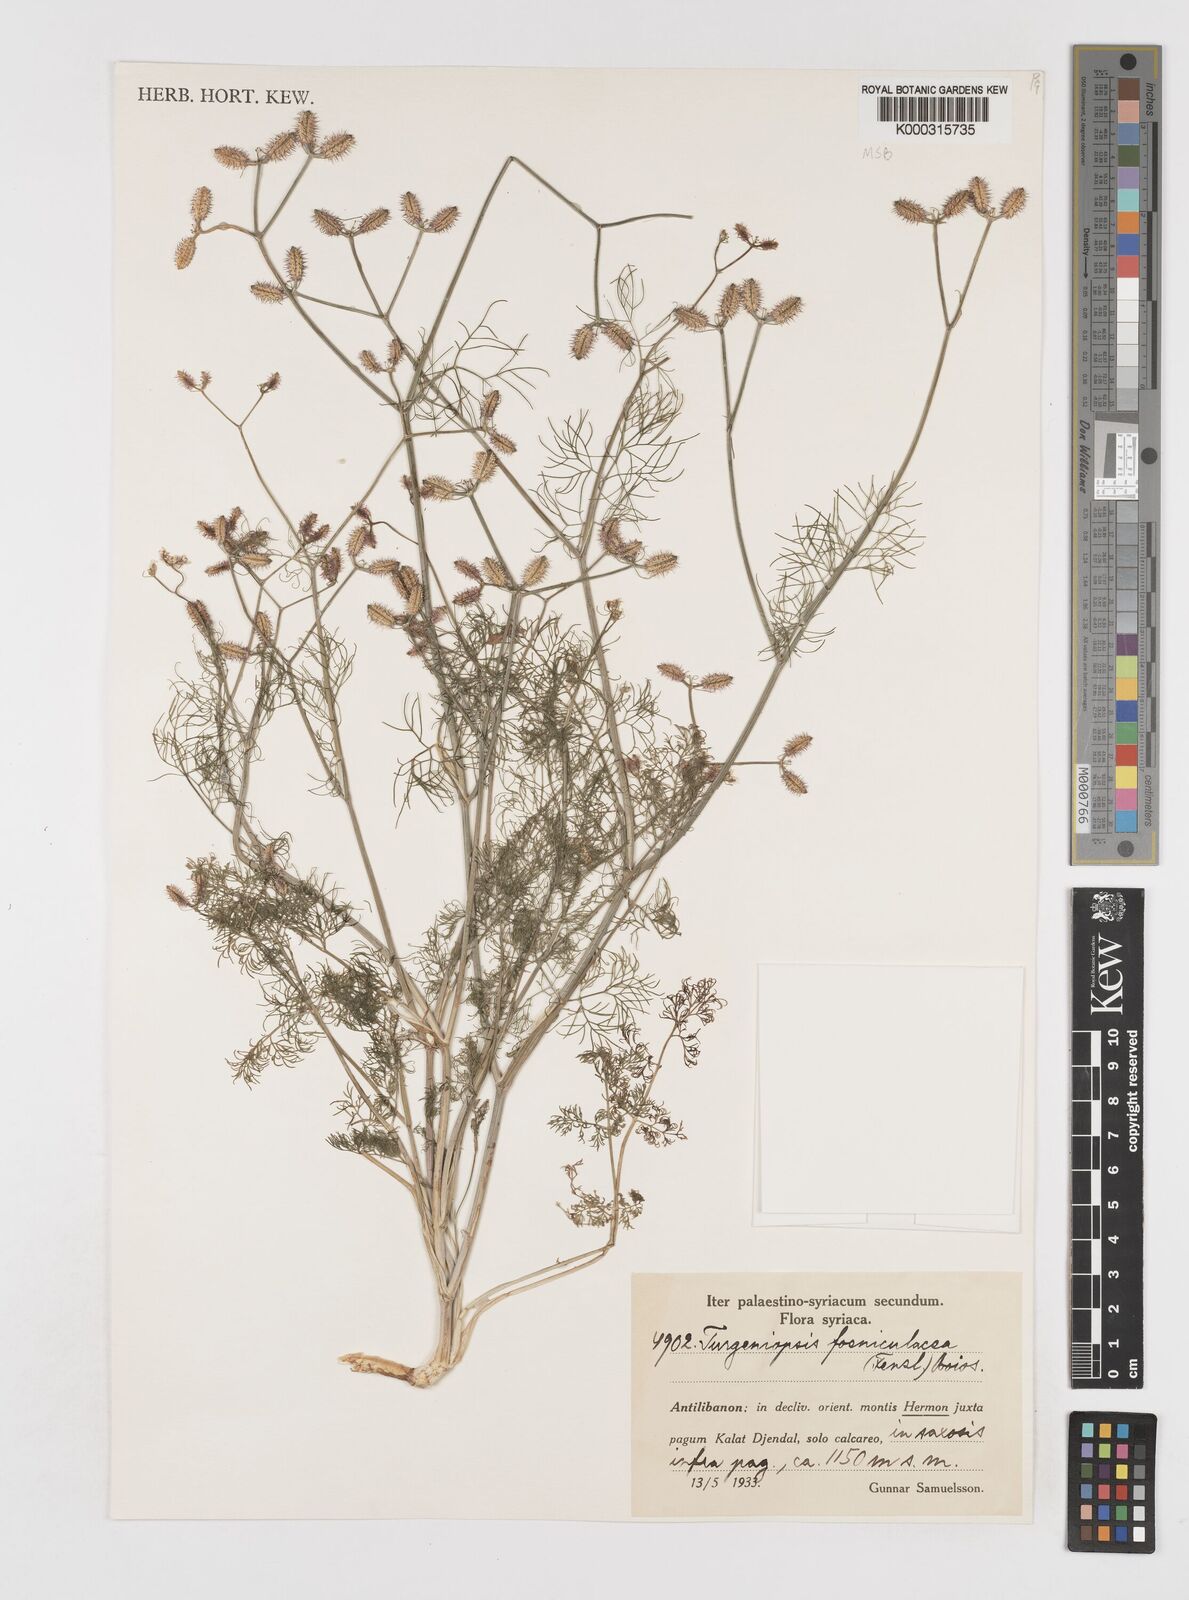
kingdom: Plantae
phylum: Tracheophyta
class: Magnoliopsida
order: Apiales
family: Apiaceae
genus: Turgeniopsis
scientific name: Turgeniopsis foeniculacea
